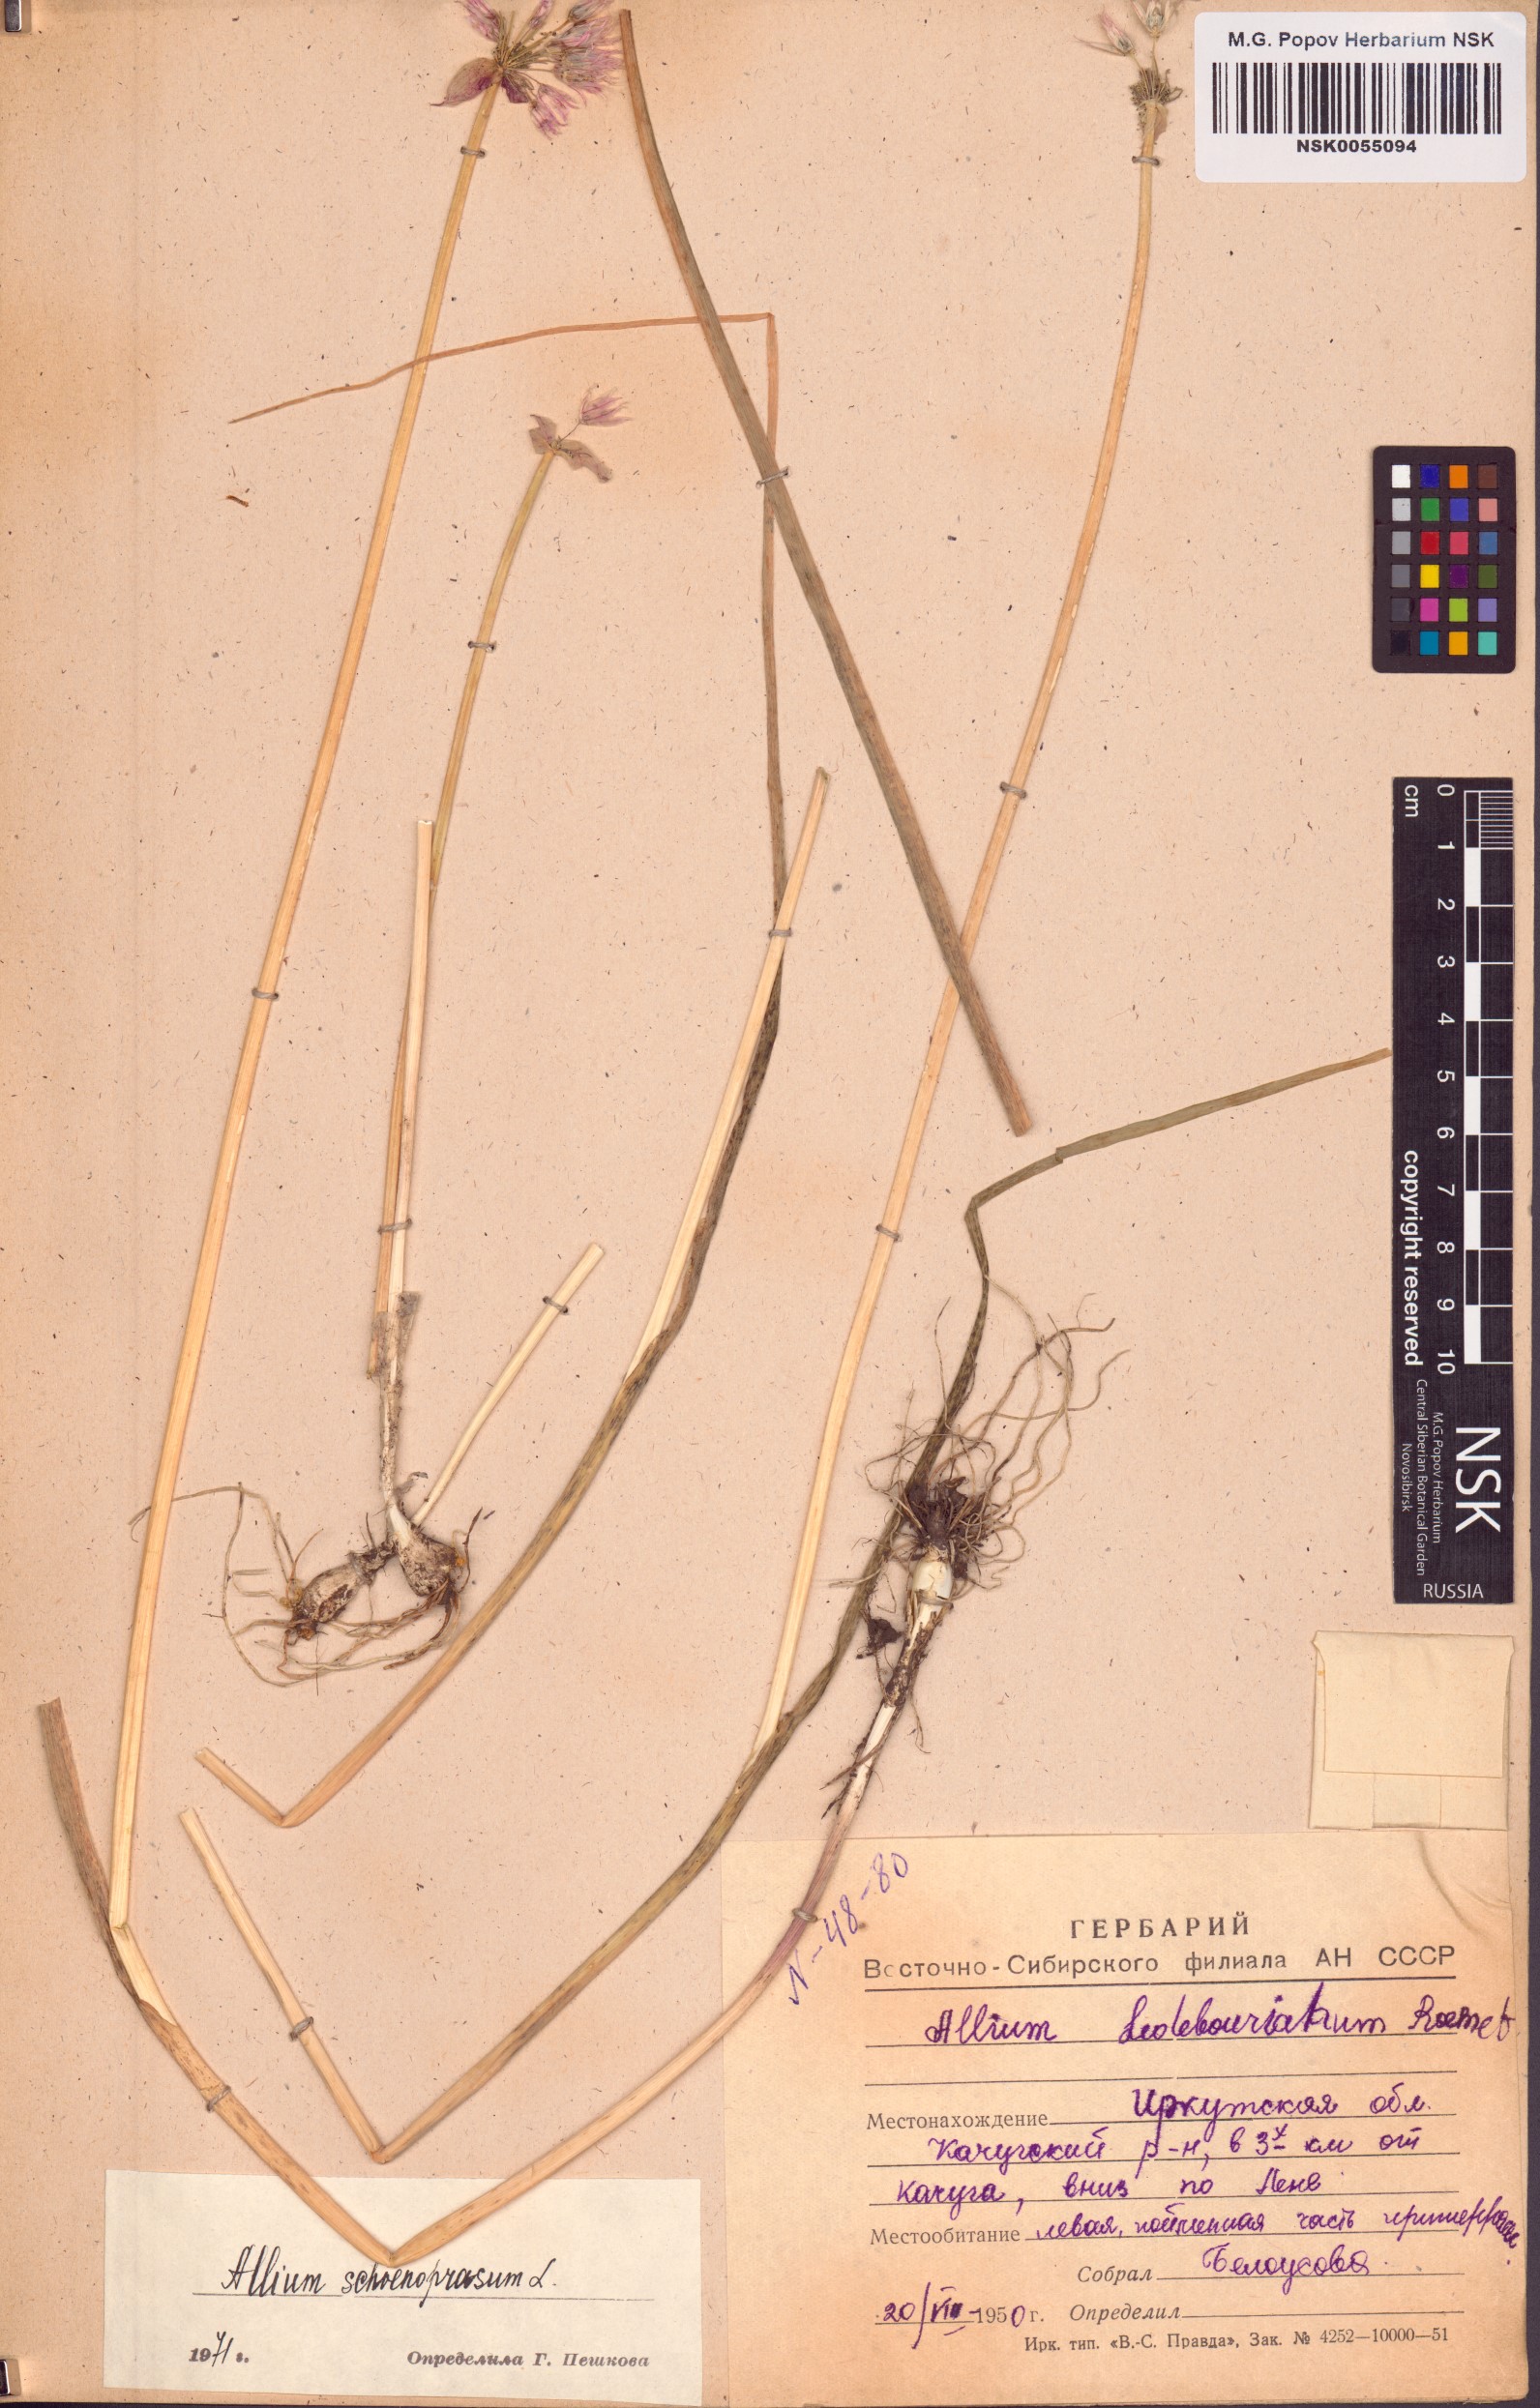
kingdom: Plantae
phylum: Tracheophyta
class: Liliopsida
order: Asparagales
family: Amaryllidaceae
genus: Allium
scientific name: Allium schoenoprasum
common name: Chives
